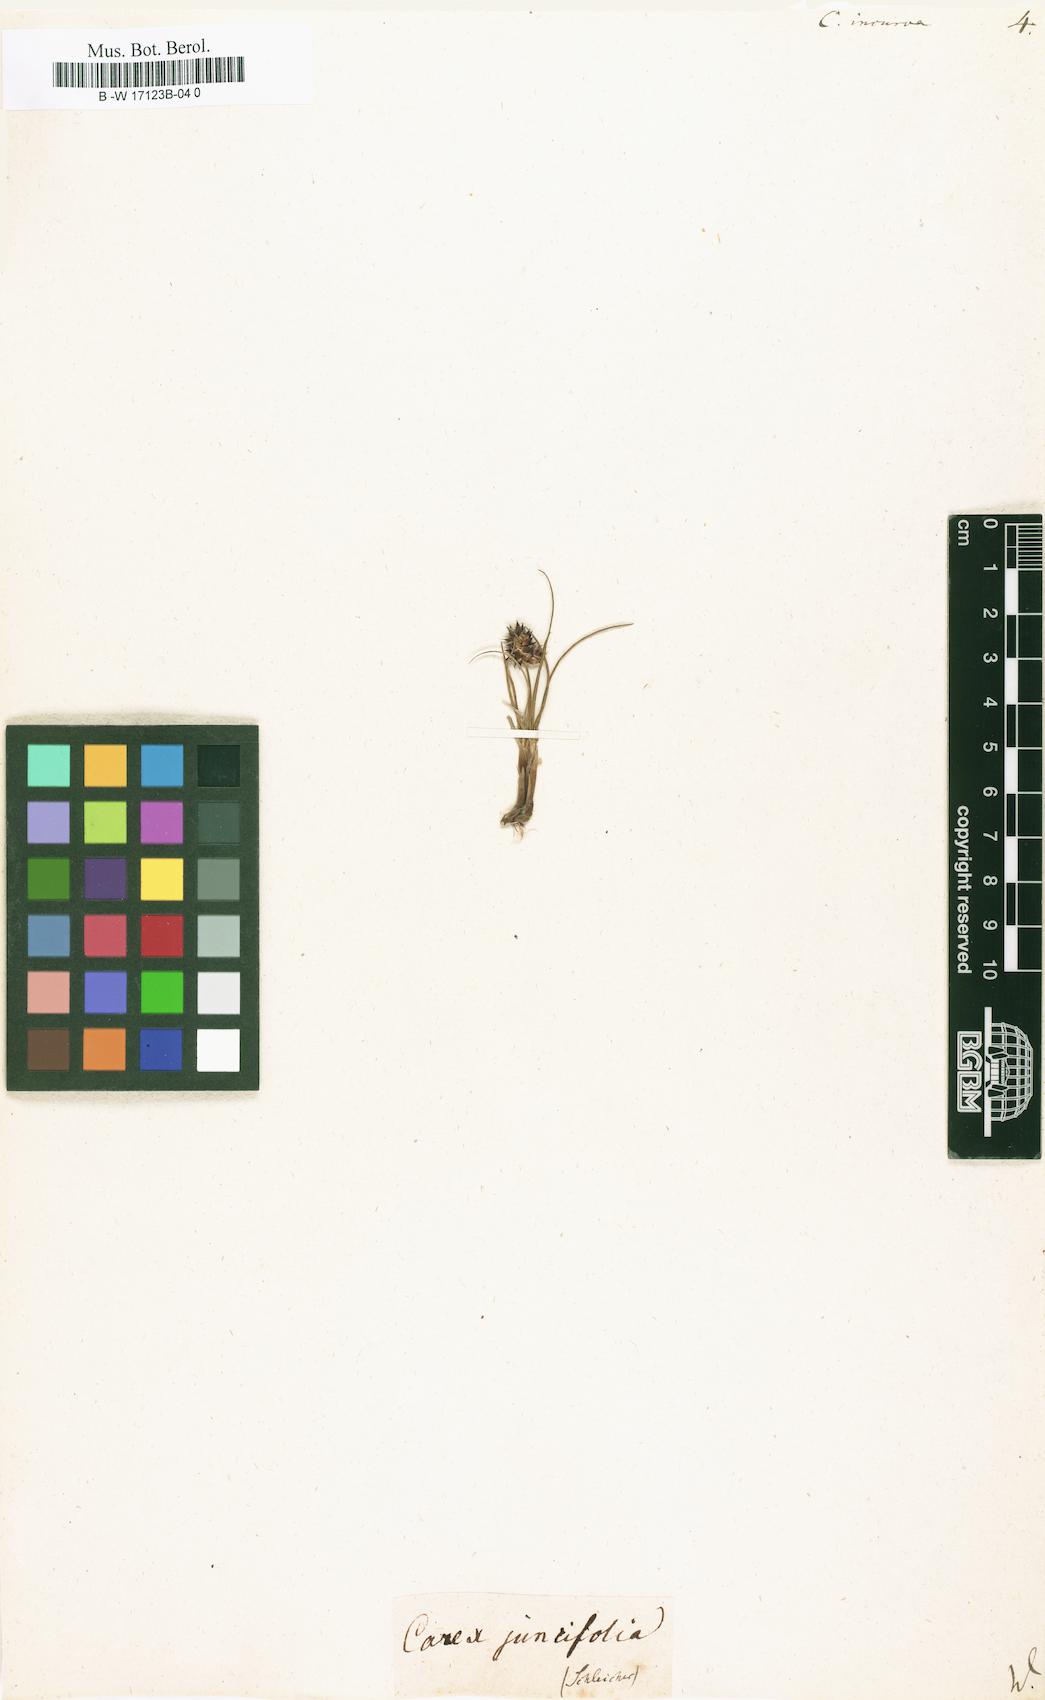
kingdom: Plantae
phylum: Tracheophyta
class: Liliopsida
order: Poales
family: Cyperaceae
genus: Carex
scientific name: Carex
